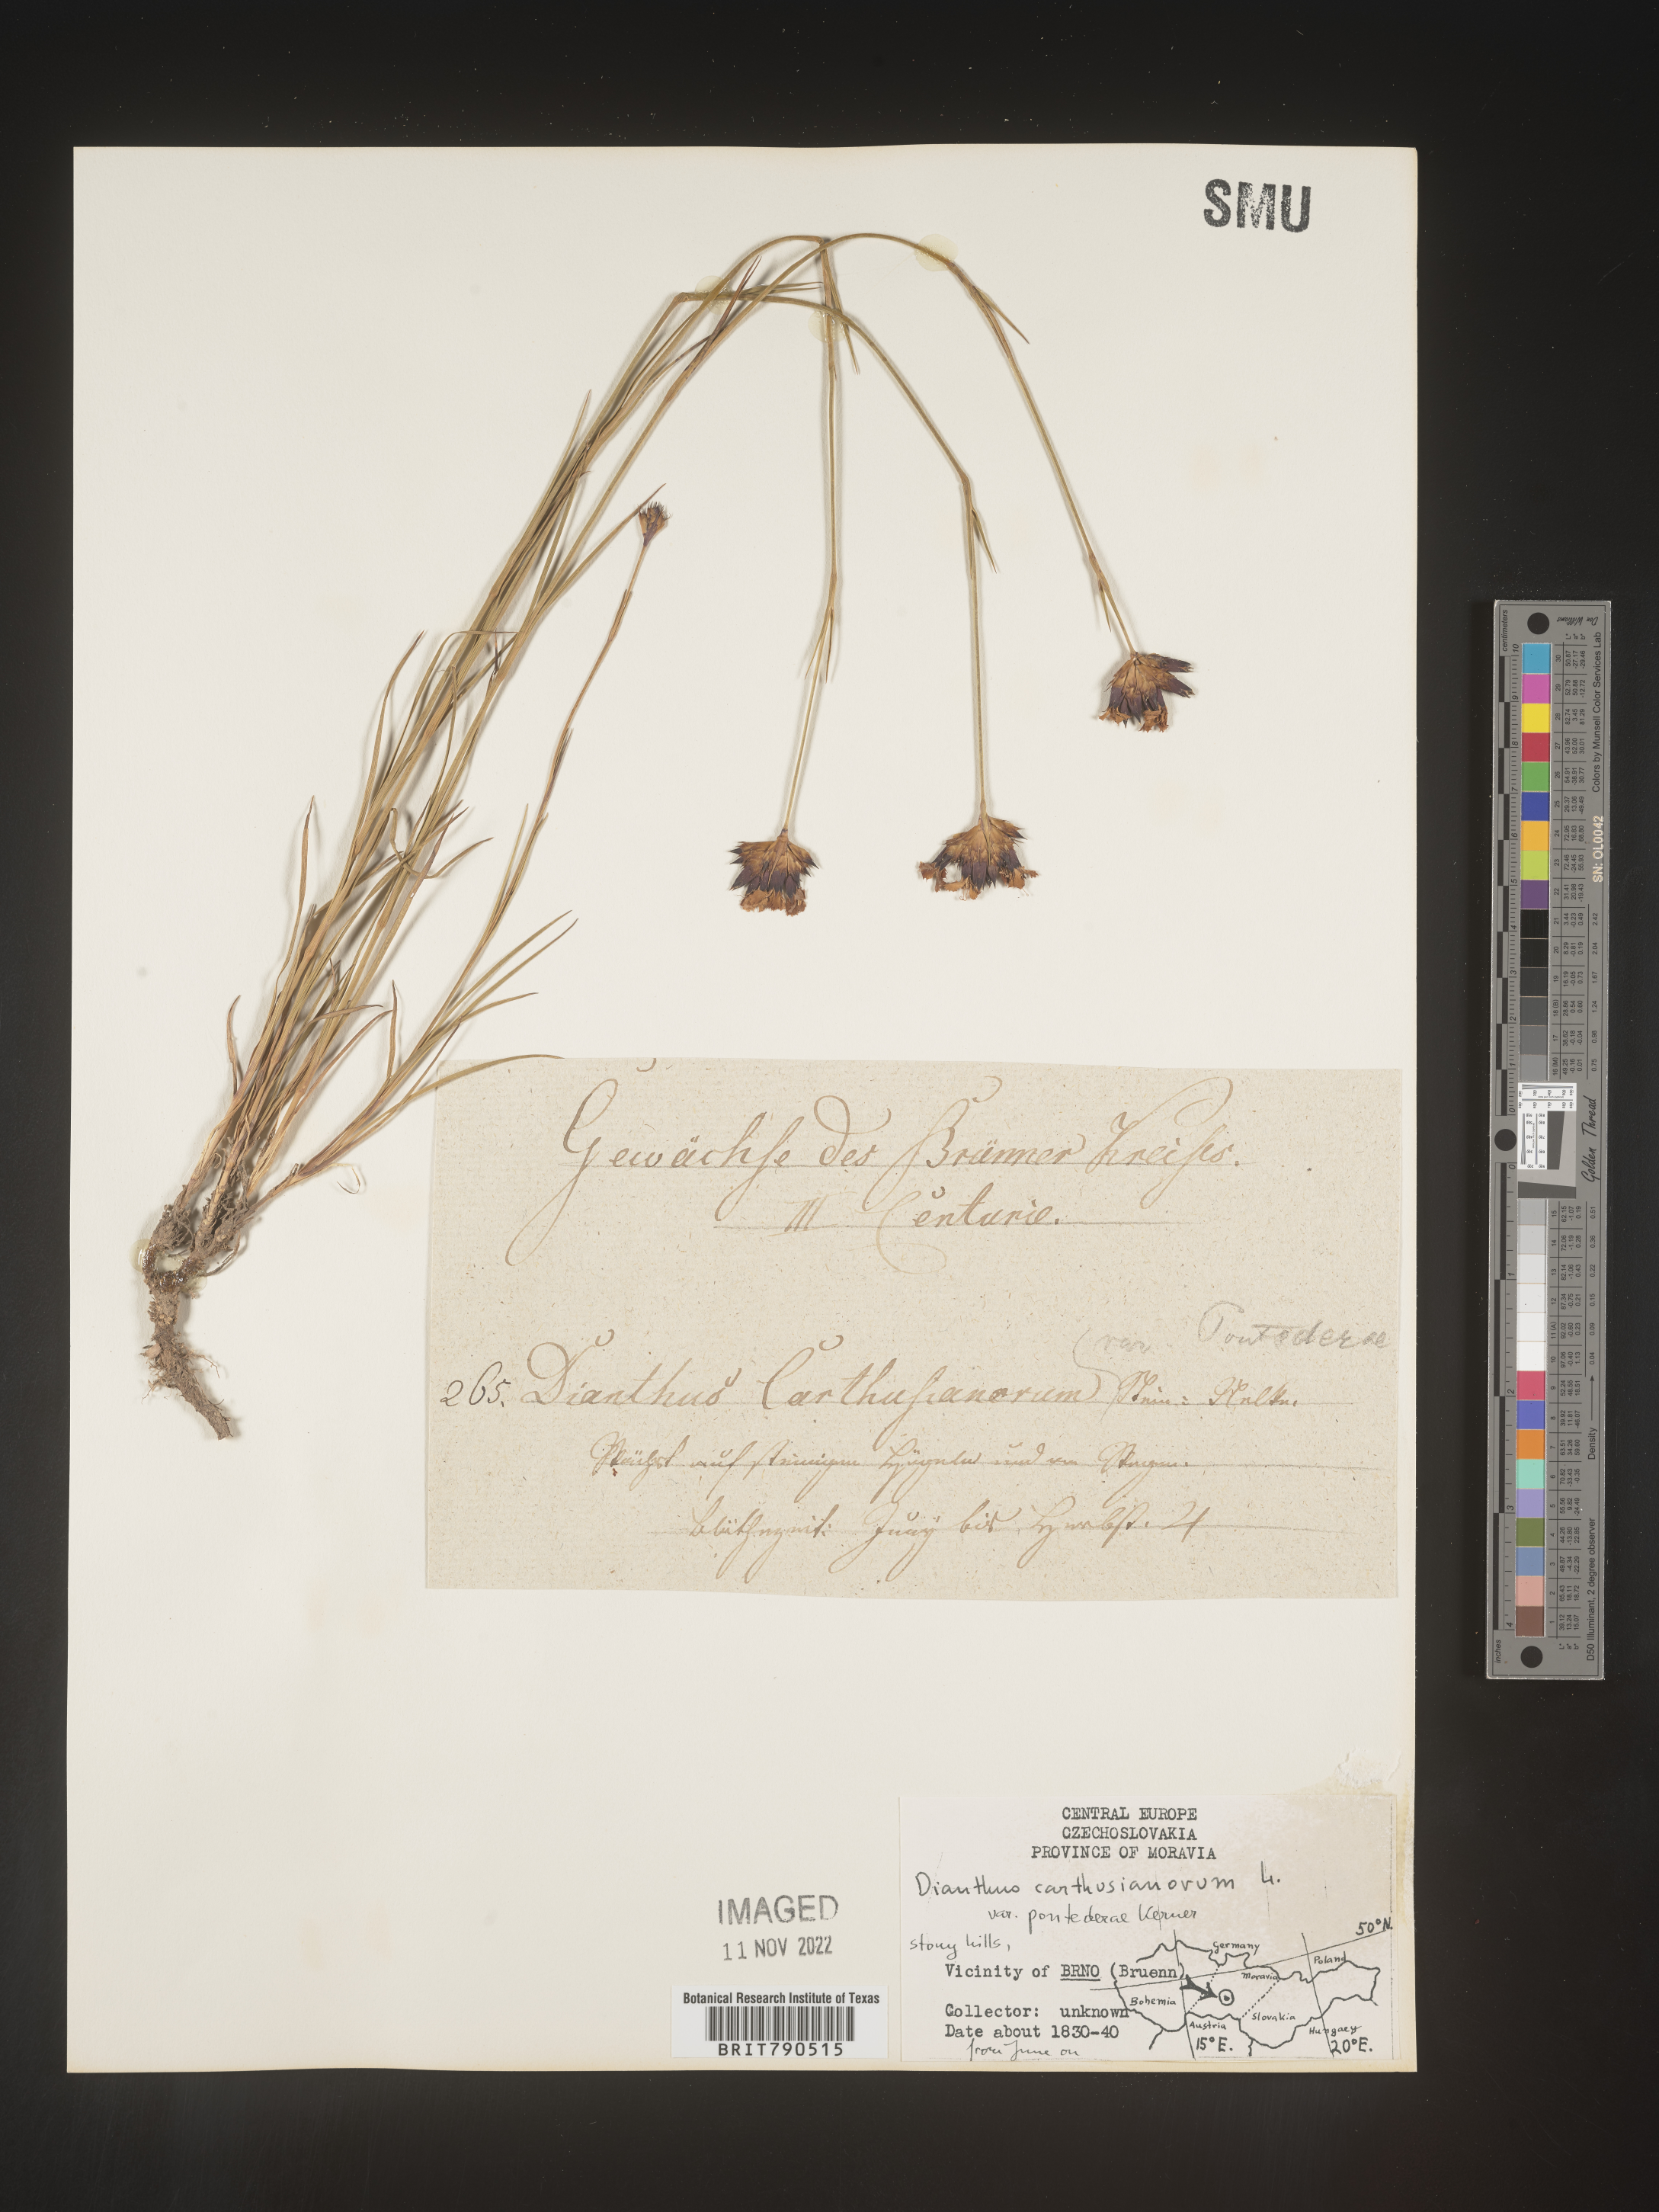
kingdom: Plantae
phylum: Tracheophyta
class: Magnoliopsida
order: Caryophyllales
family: Caryophyllaceae
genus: Dianthus
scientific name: Dianthus carthusianorum
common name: Carthusian pink
